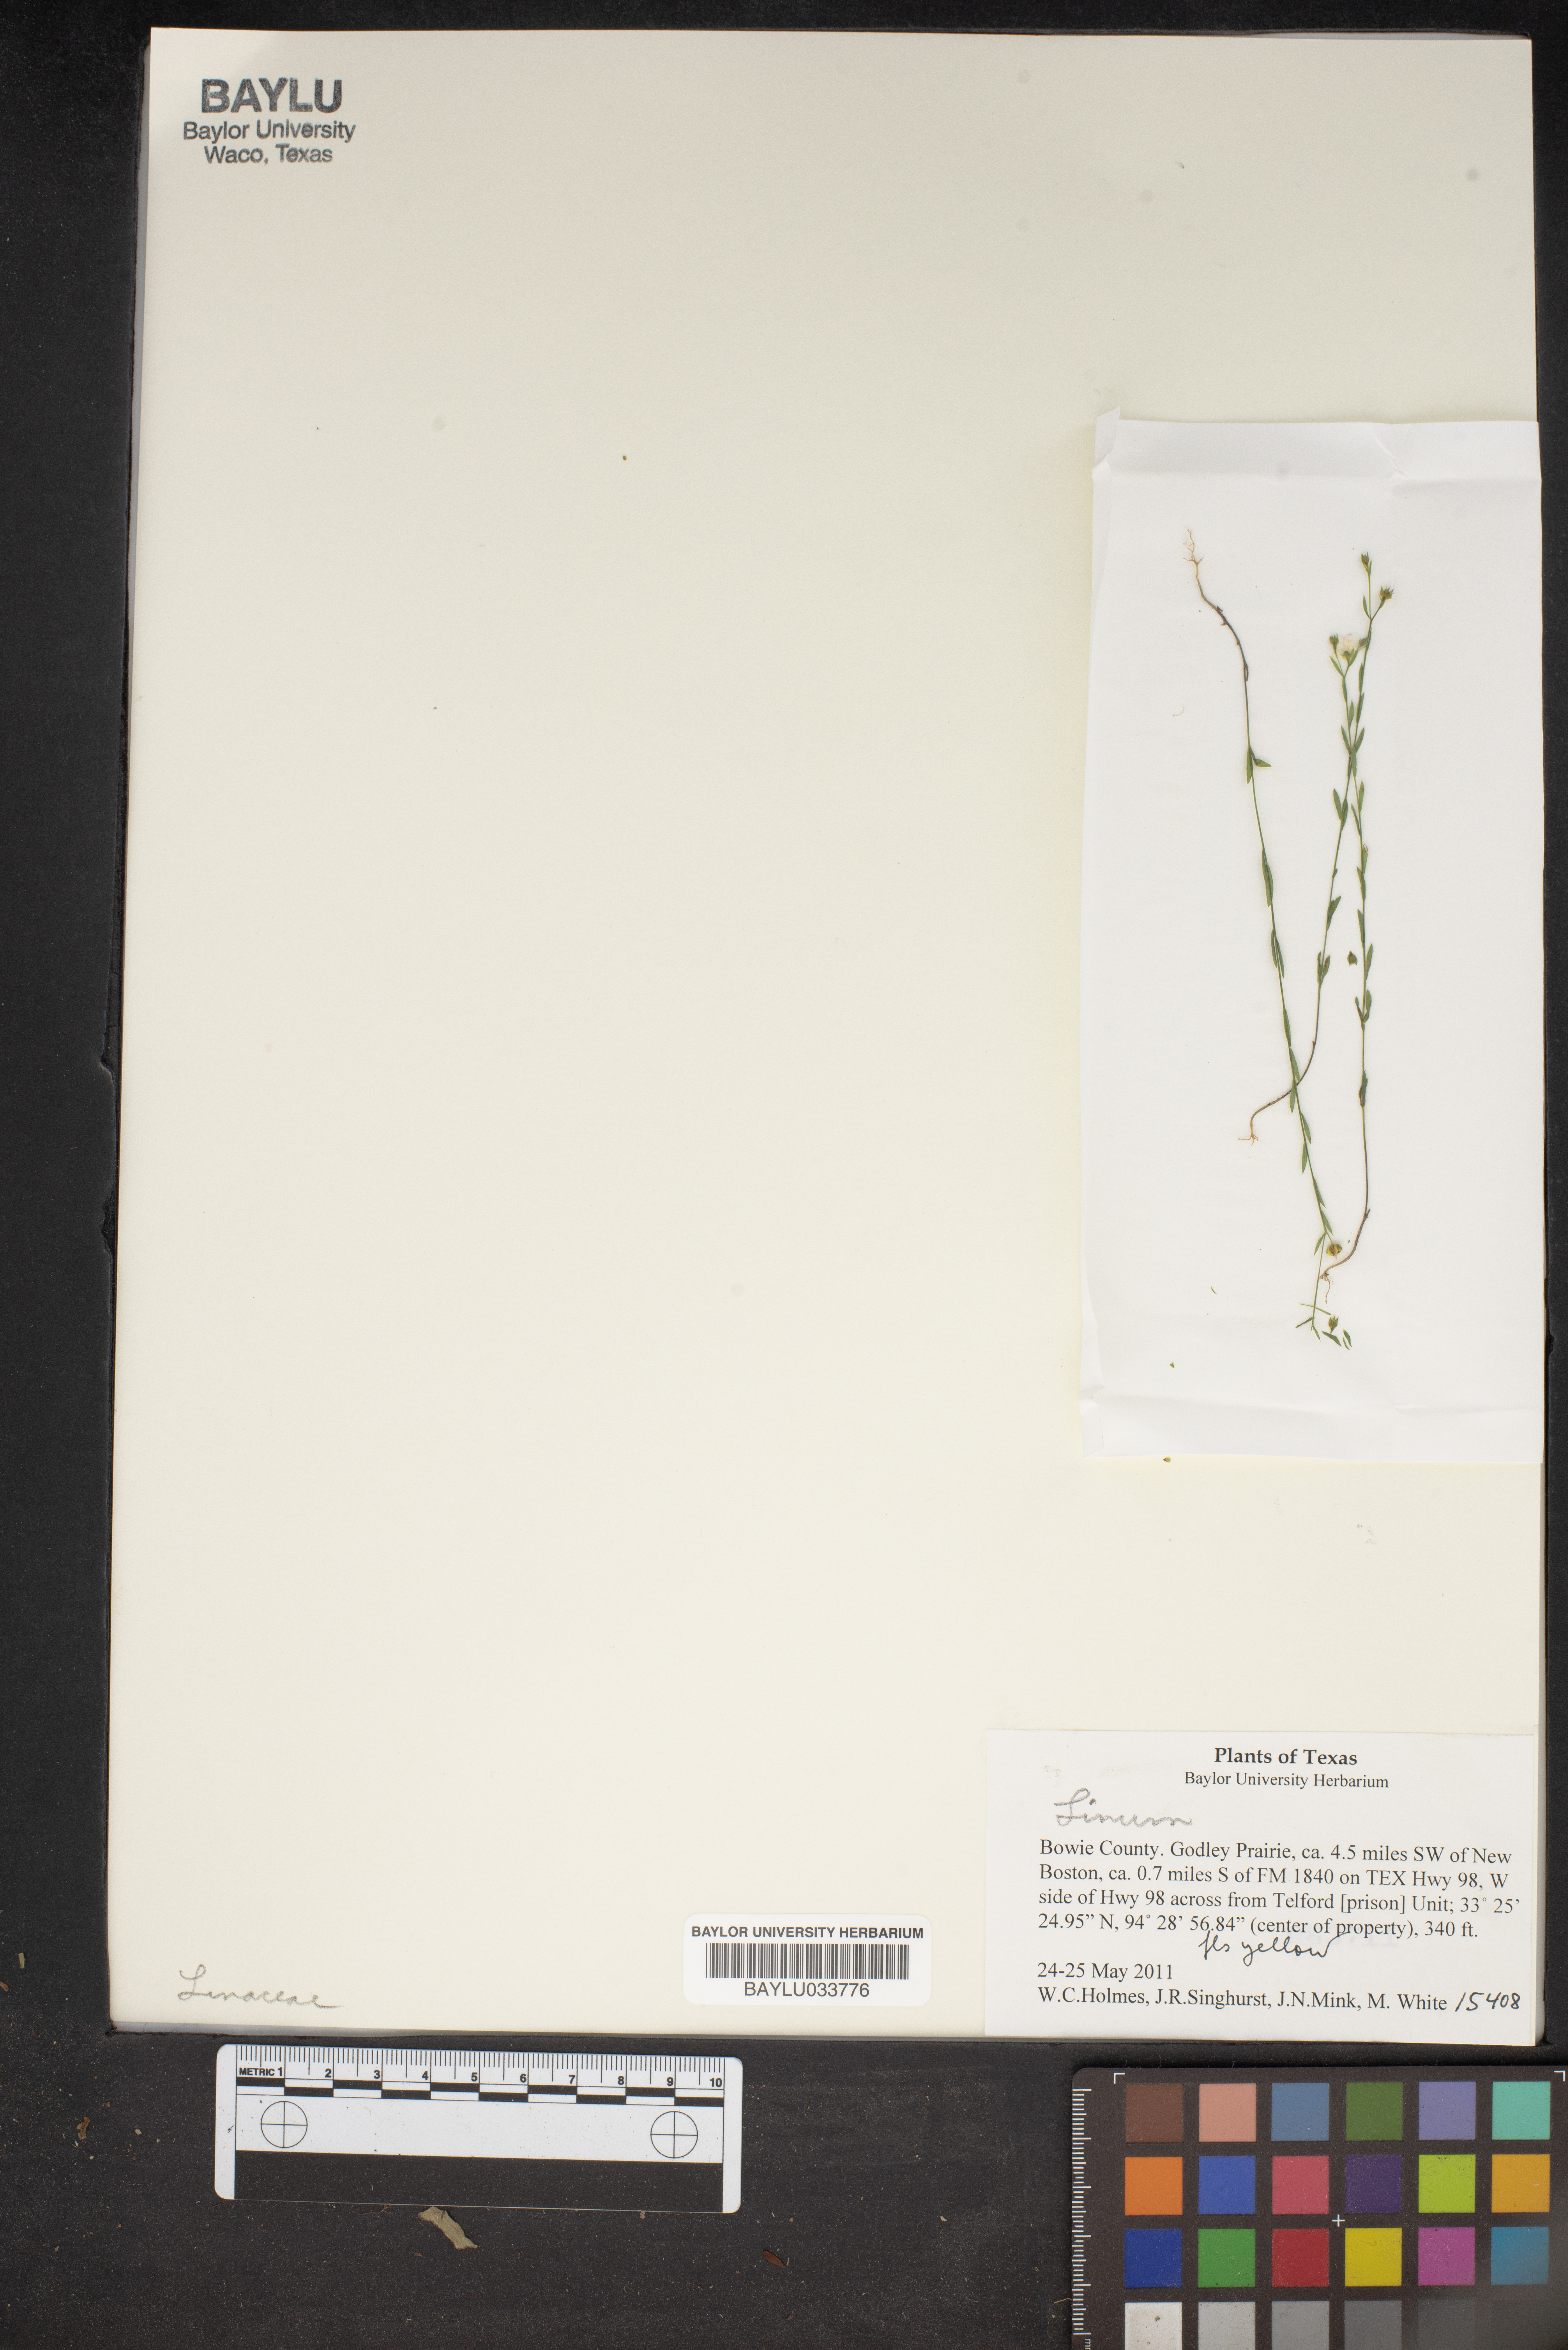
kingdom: Plantae
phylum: Tracheophyta
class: Magnoliopsida
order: Malpighiales
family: Linaceae
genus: Linum
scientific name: Linum
